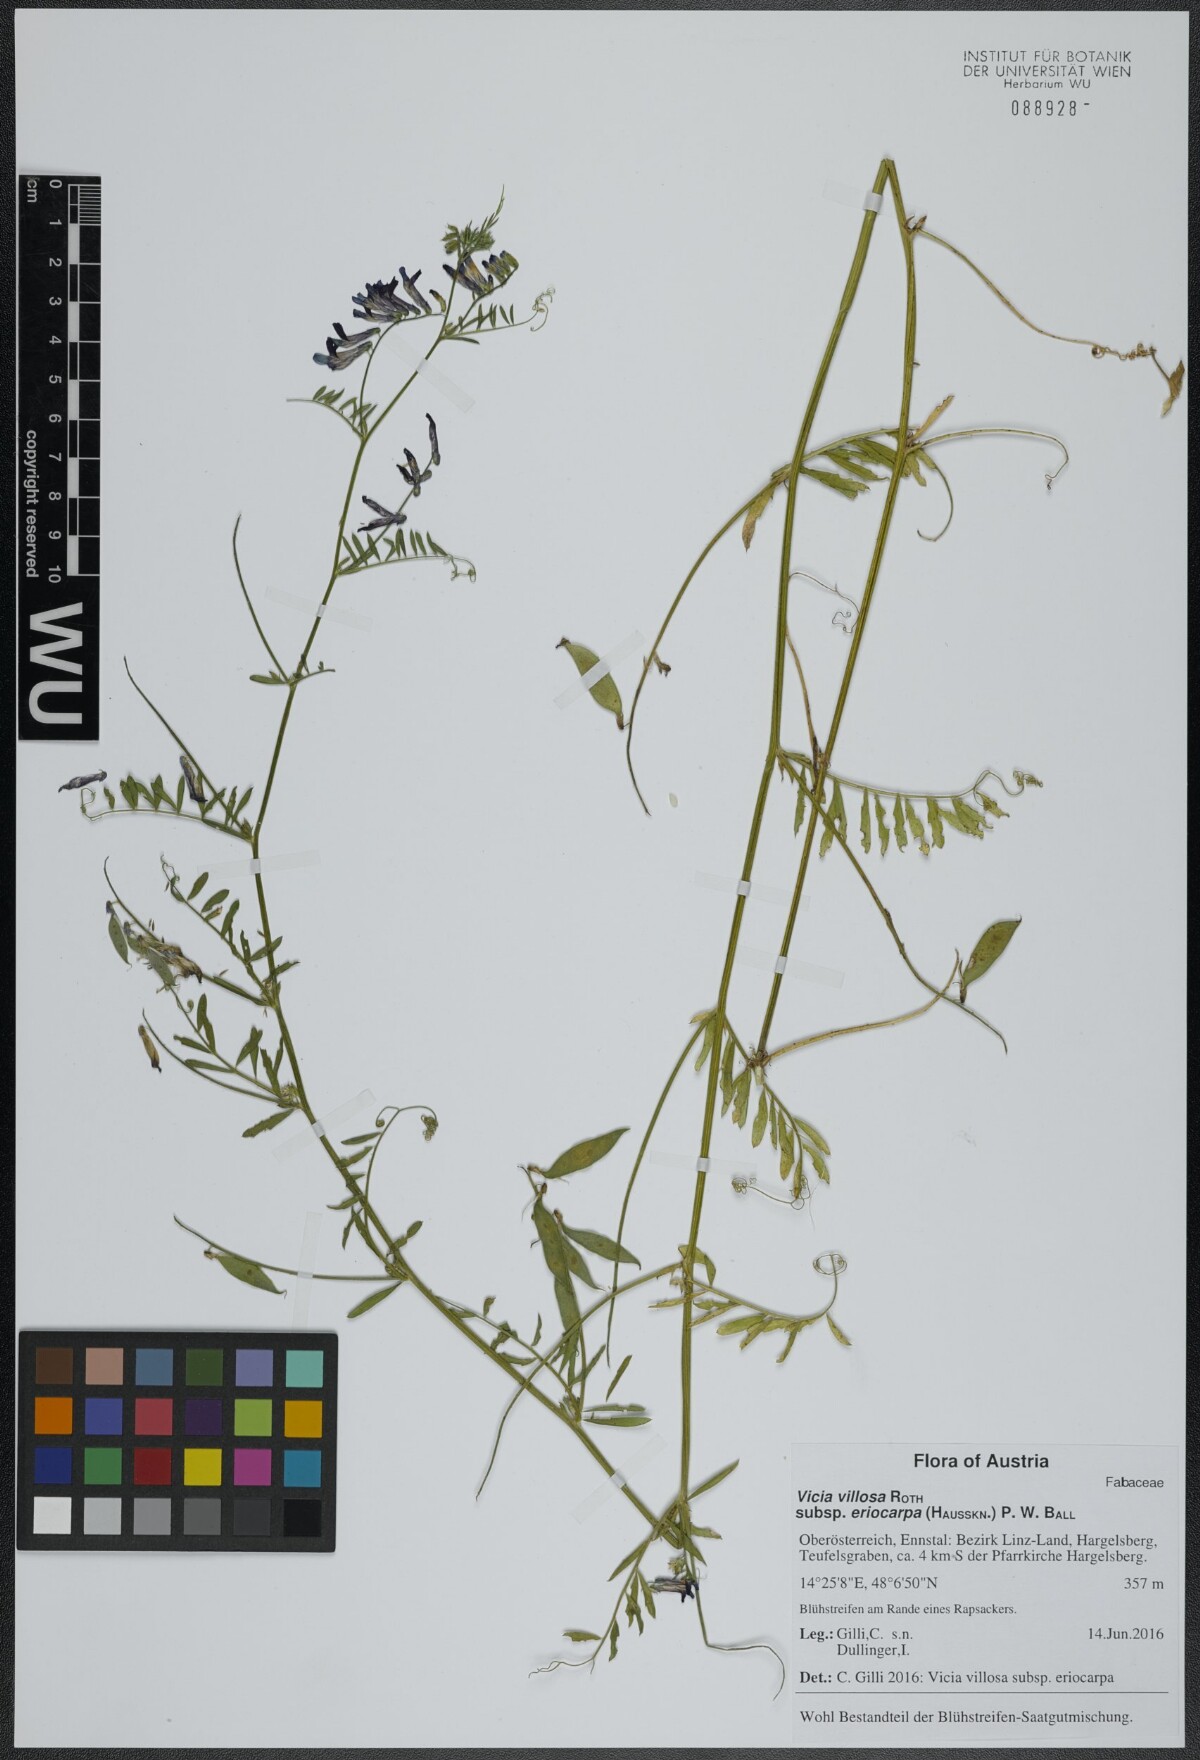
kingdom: Plantae
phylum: Tracheophyta
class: Magnoliopsida
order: Fabales
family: Fabaceae
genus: Vicia
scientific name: Vicia eriocarpa
